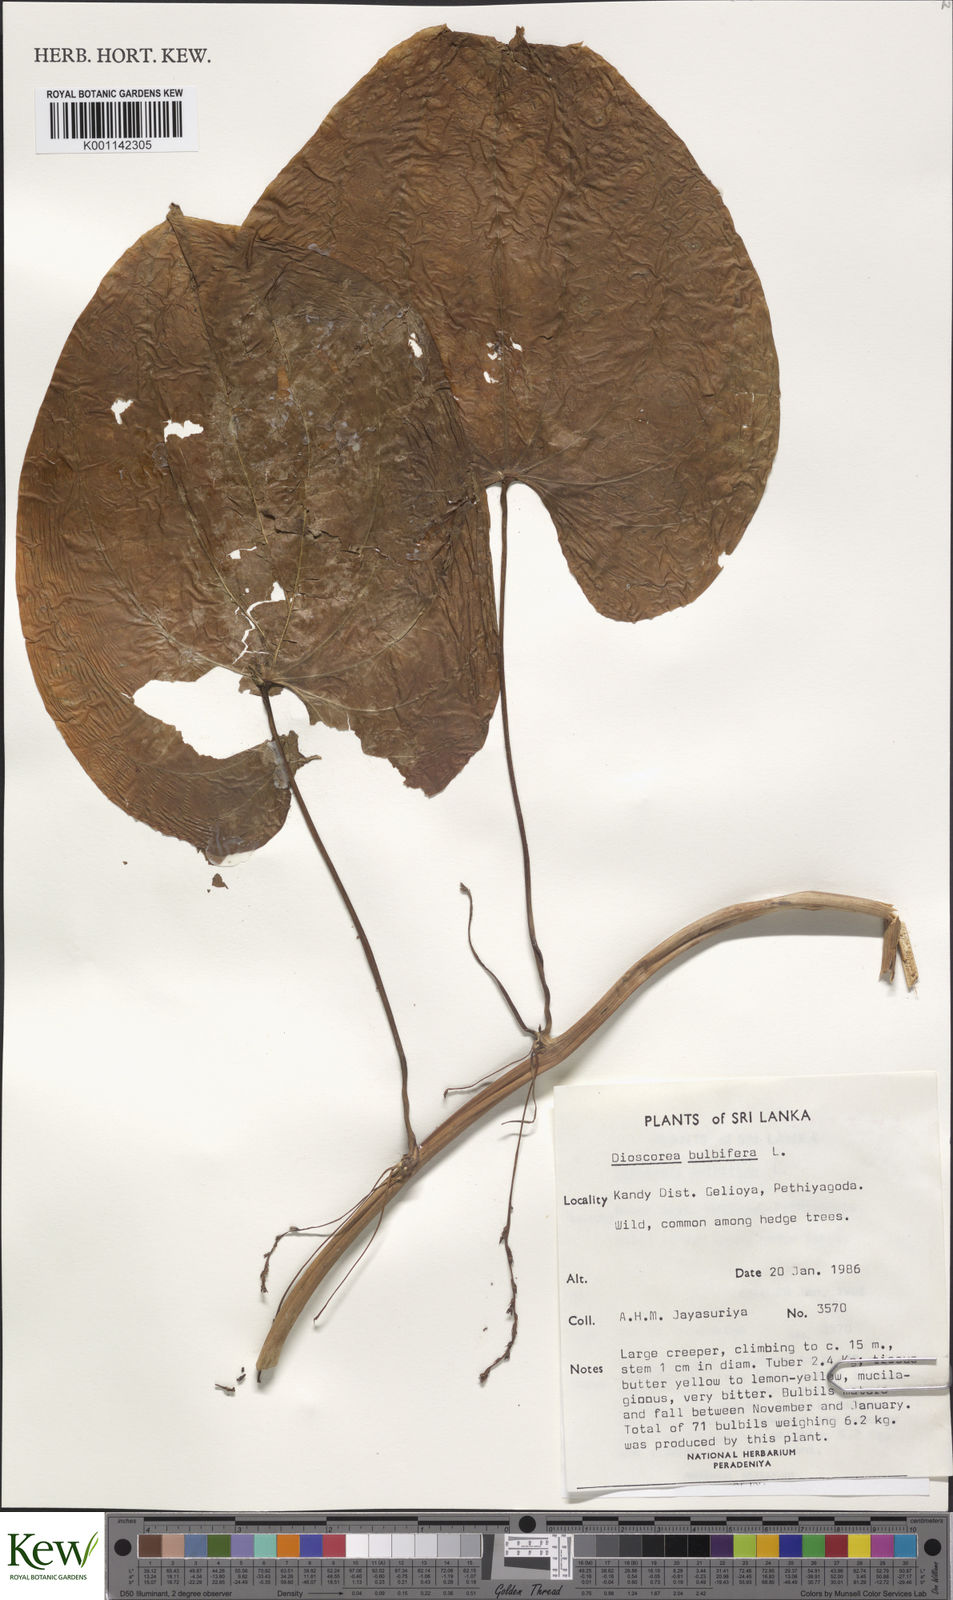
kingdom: Plantae
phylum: Tracheophyta
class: Liliopsida
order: Dioscoreales
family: Dioscoreaceae
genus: Dioscorea
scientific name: Dioscorea bulbifera
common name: Air yam
